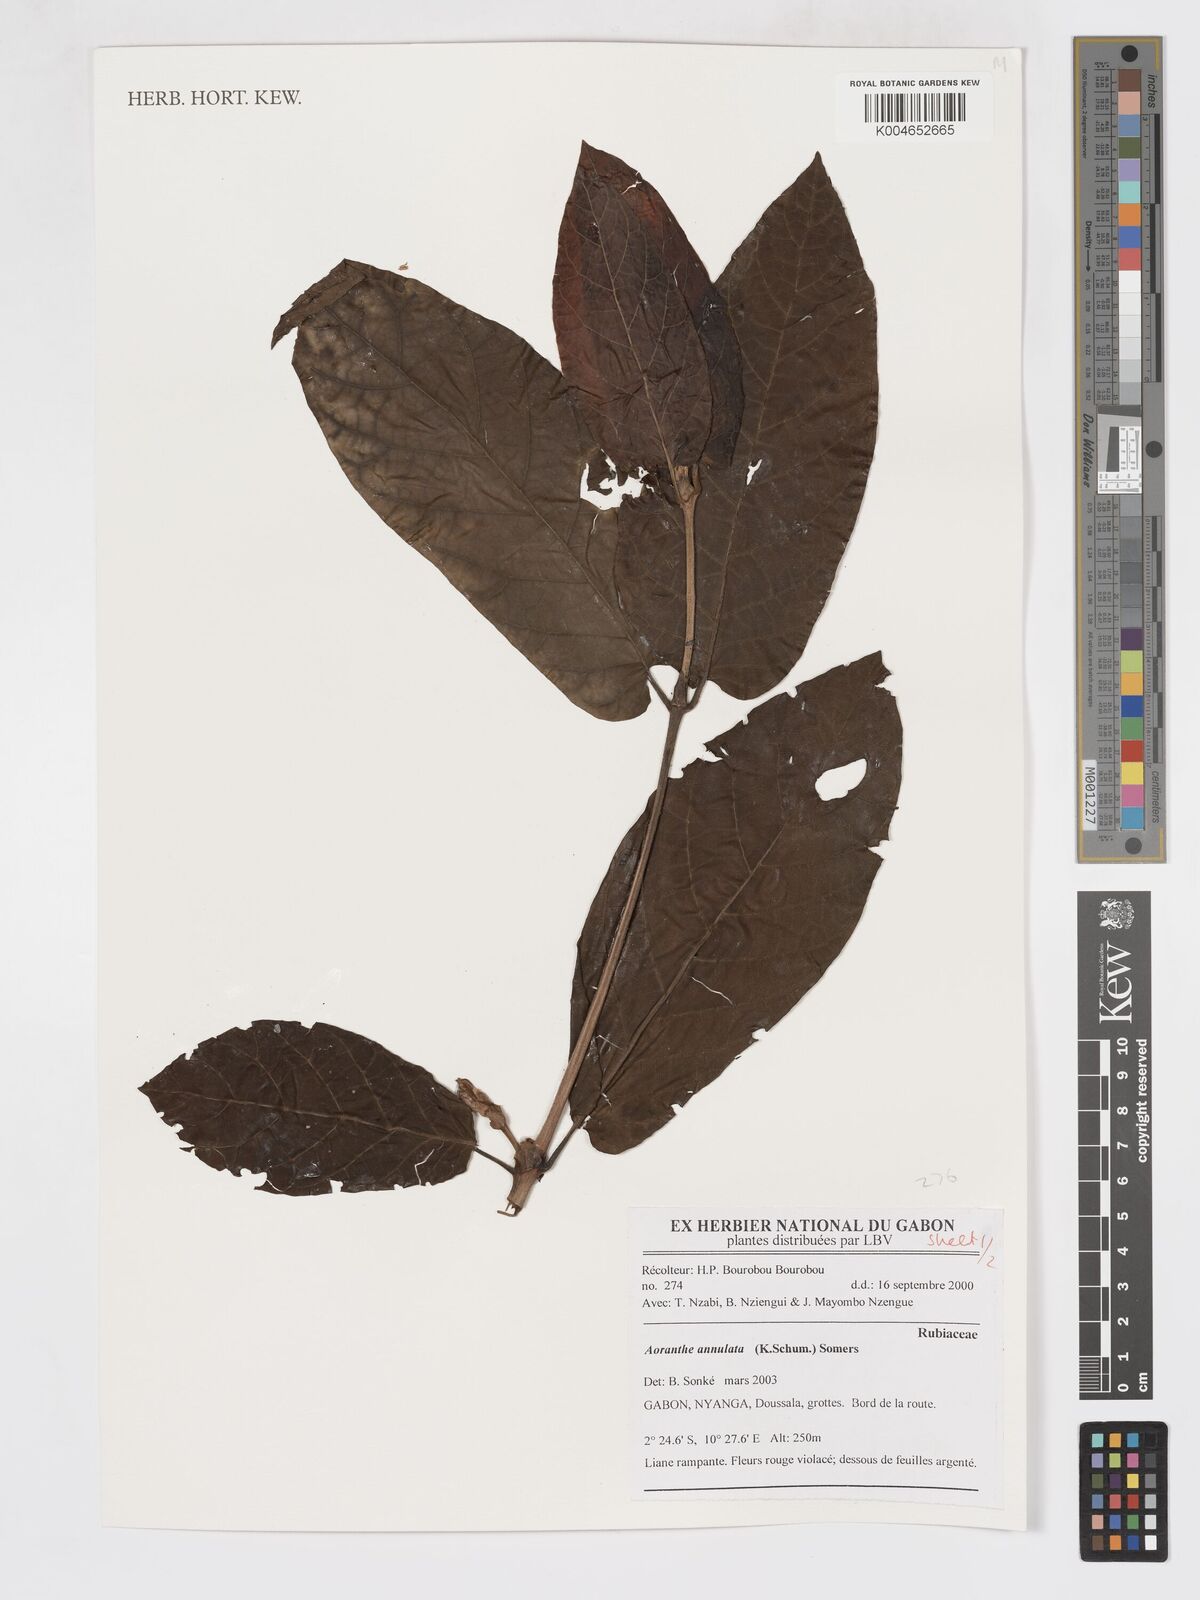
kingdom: Plantae
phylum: Tracheophyta
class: Magnoliopsida
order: Gentianales
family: Rubiaceae
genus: Aoranthe
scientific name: Aoranthe annulata
